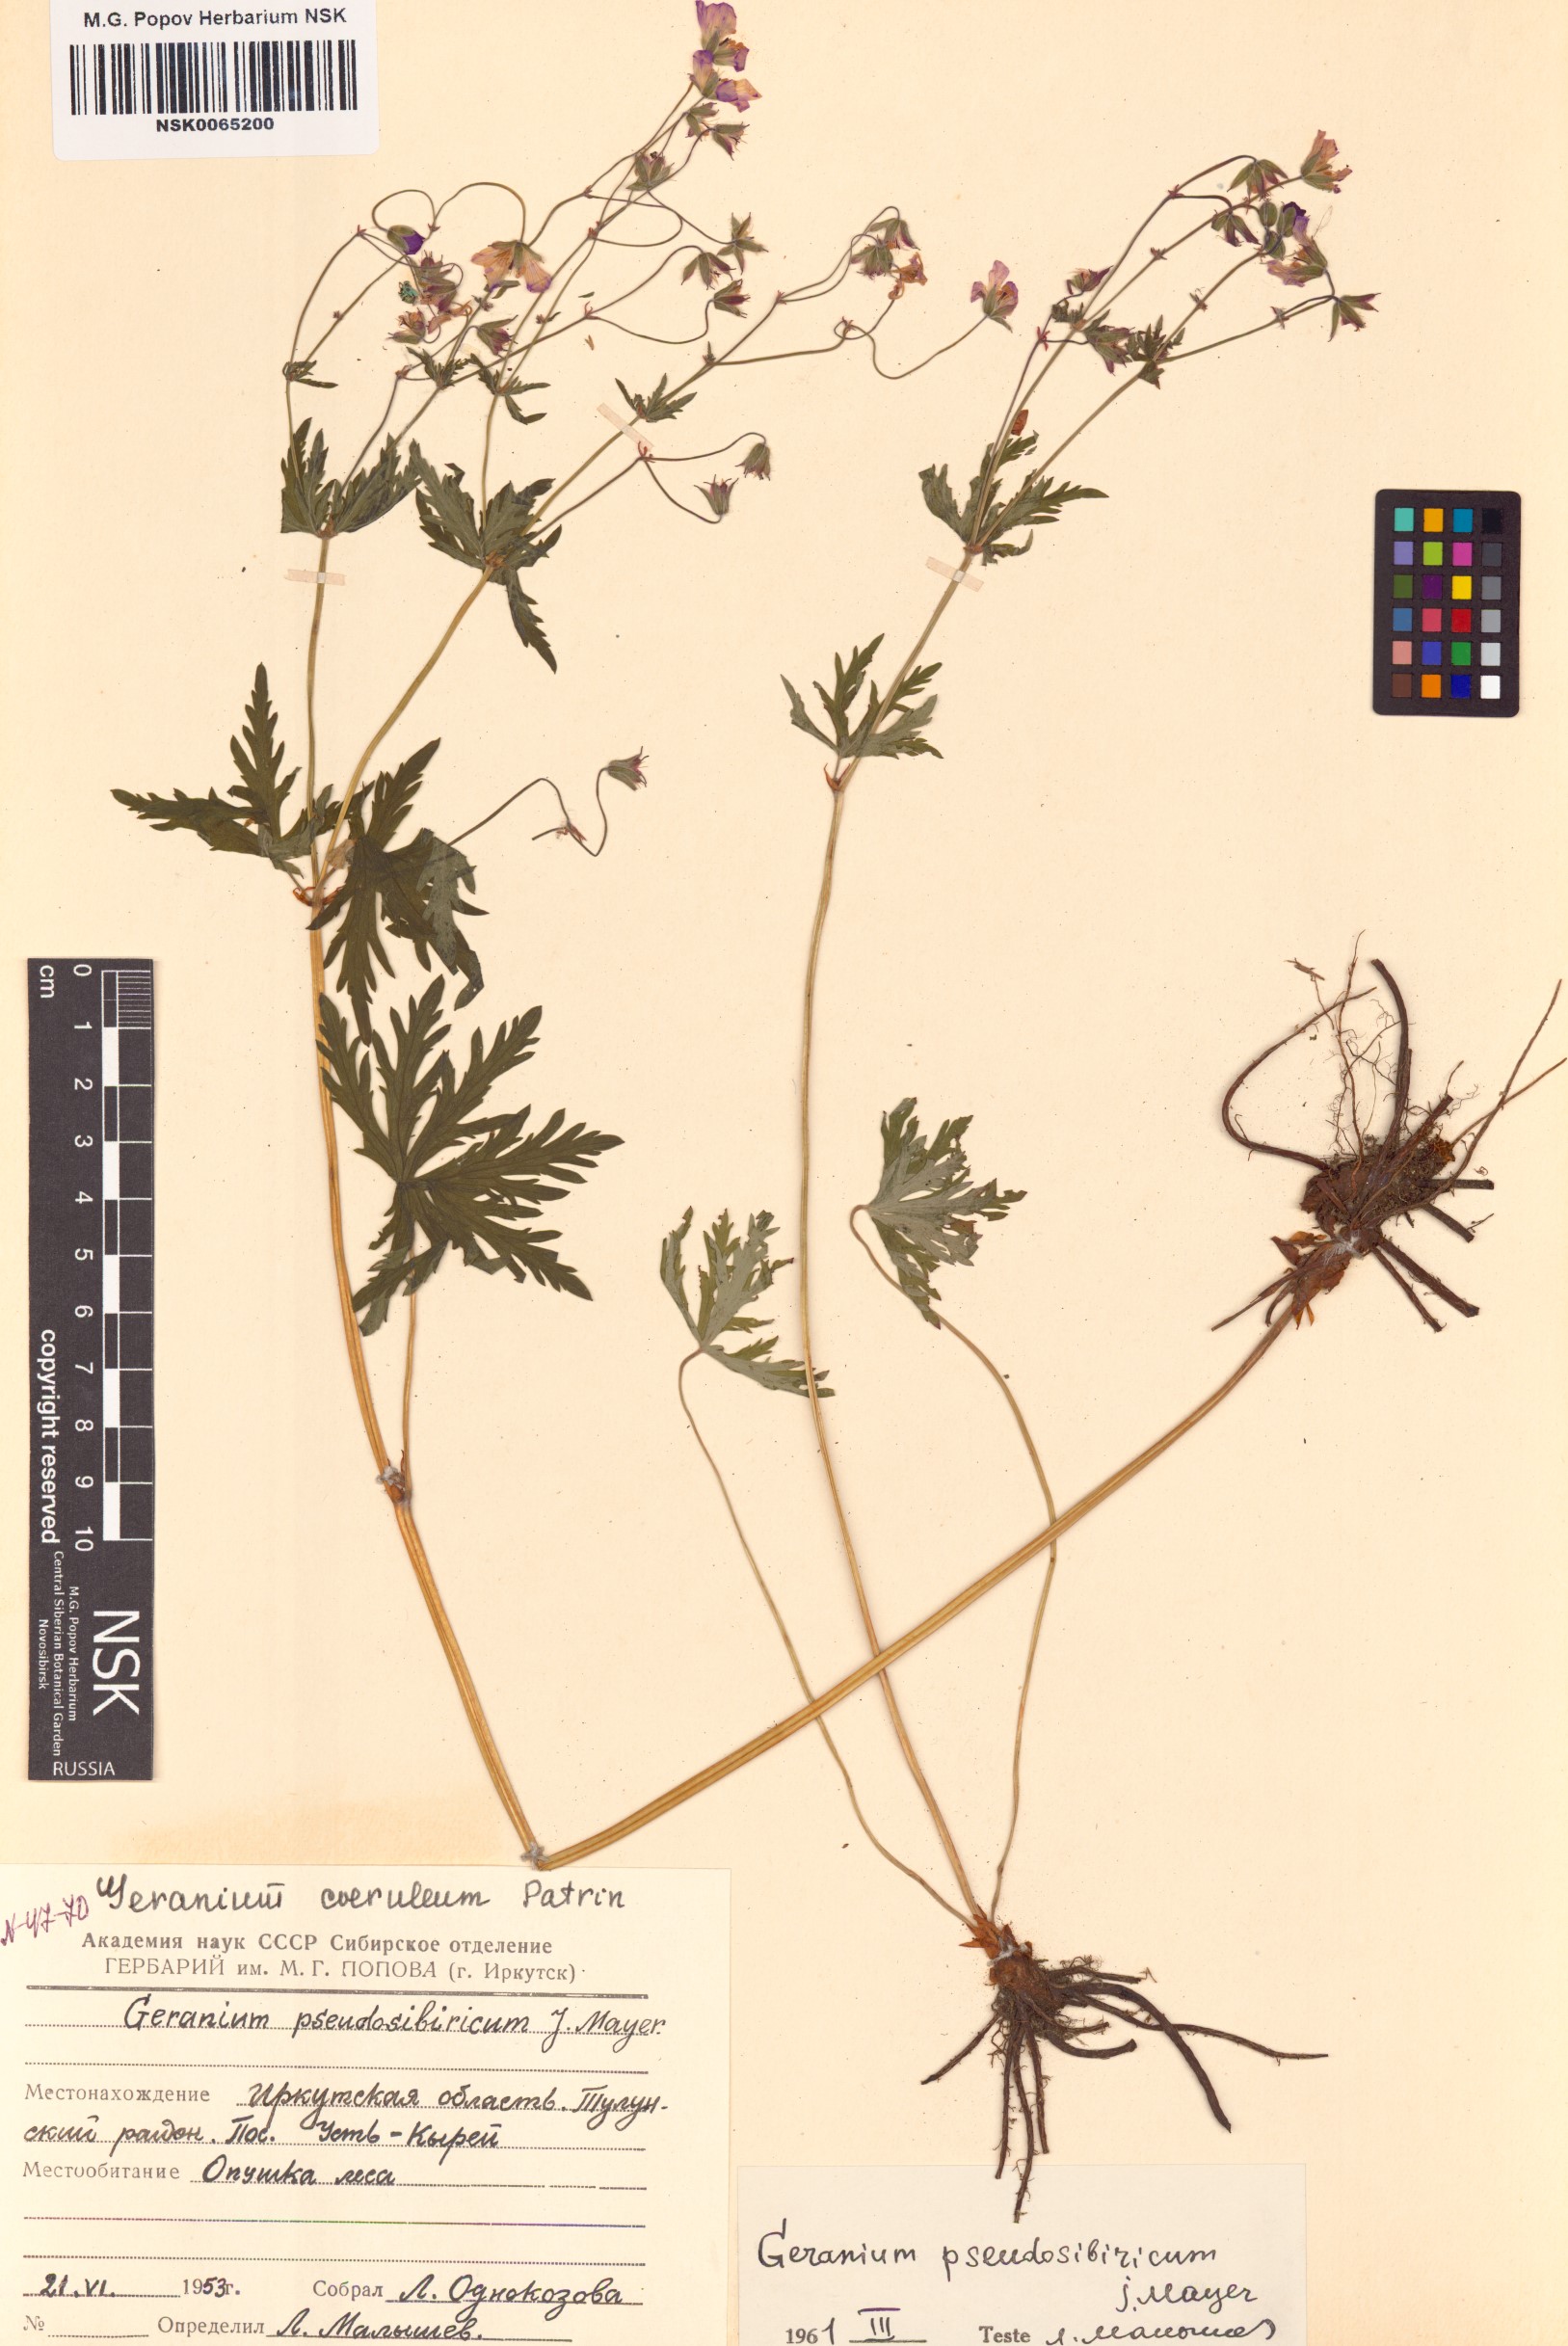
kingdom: Plantae
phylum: Tracheophyta
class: Magnoliopsida
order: Geraniales
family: Geraniaceae
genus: Geranium
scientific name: Geranium pseudosibiricum
